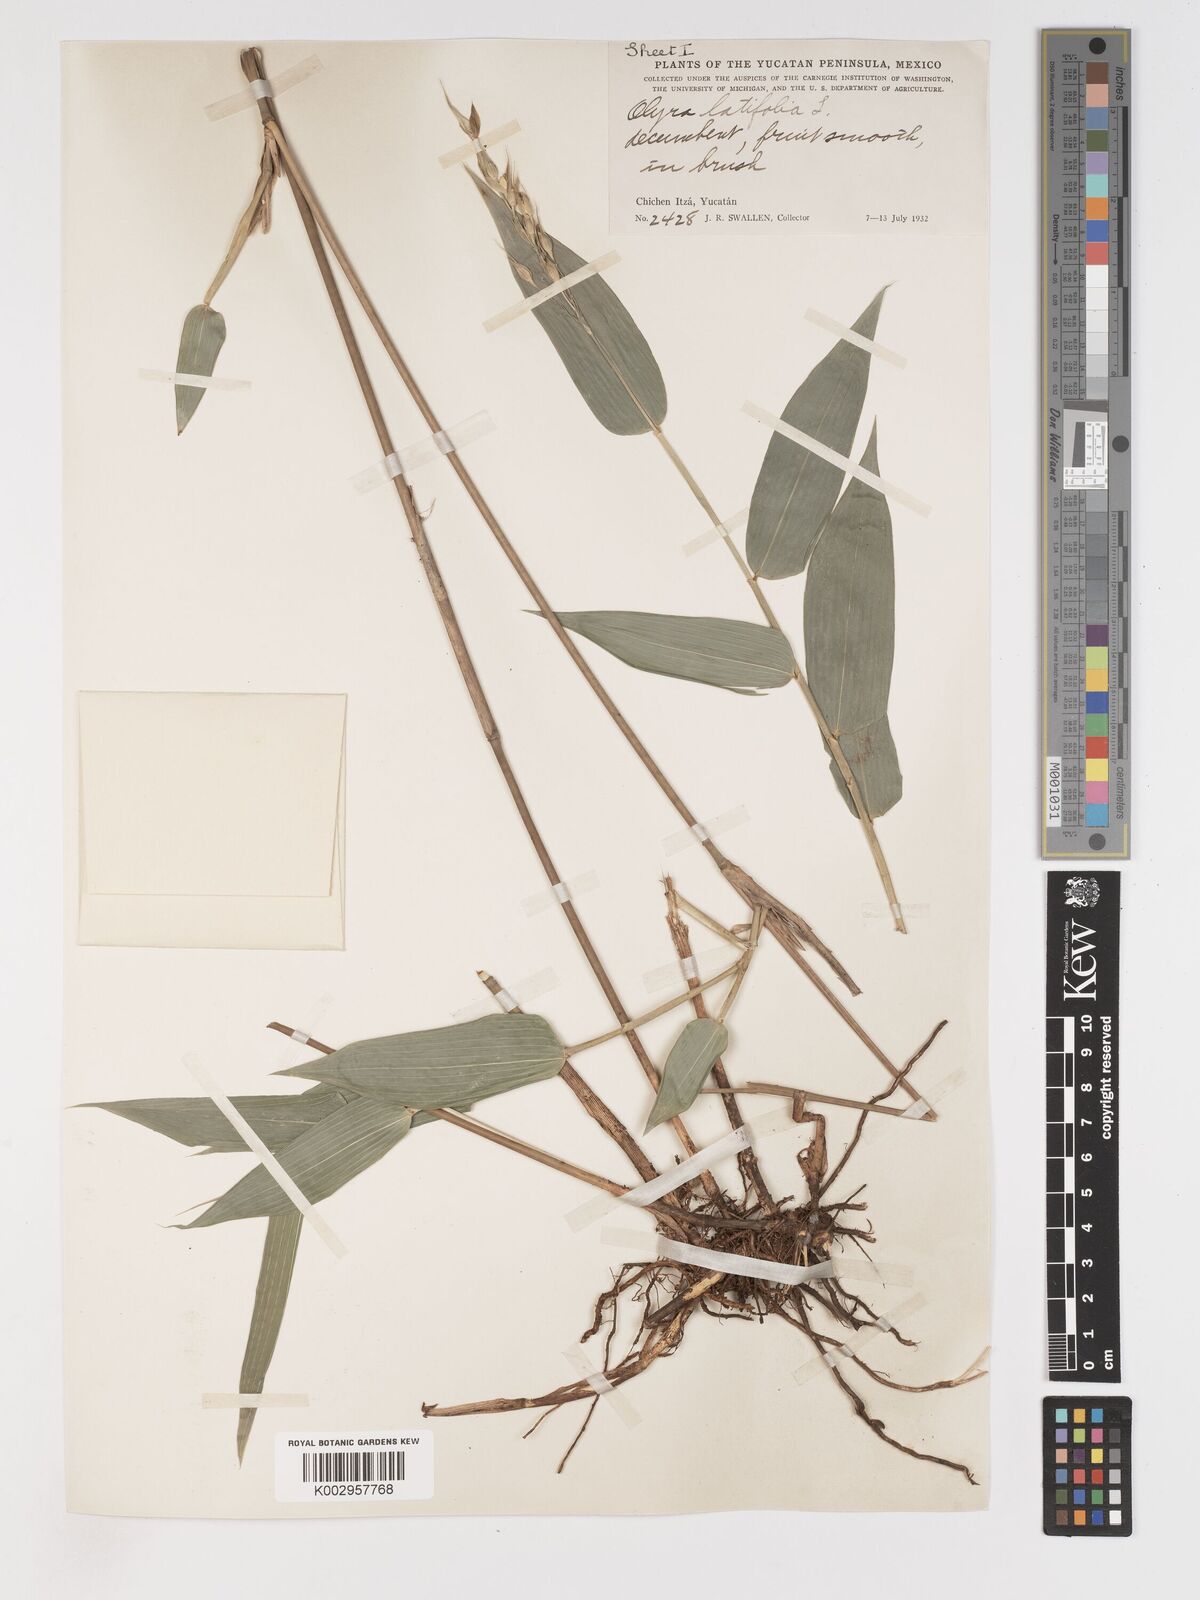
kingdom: Plantae
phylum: Tracheophyta
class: Liliopsida
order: Poales
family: Poaceae
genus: Olyra
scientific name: Olyra latifolia
